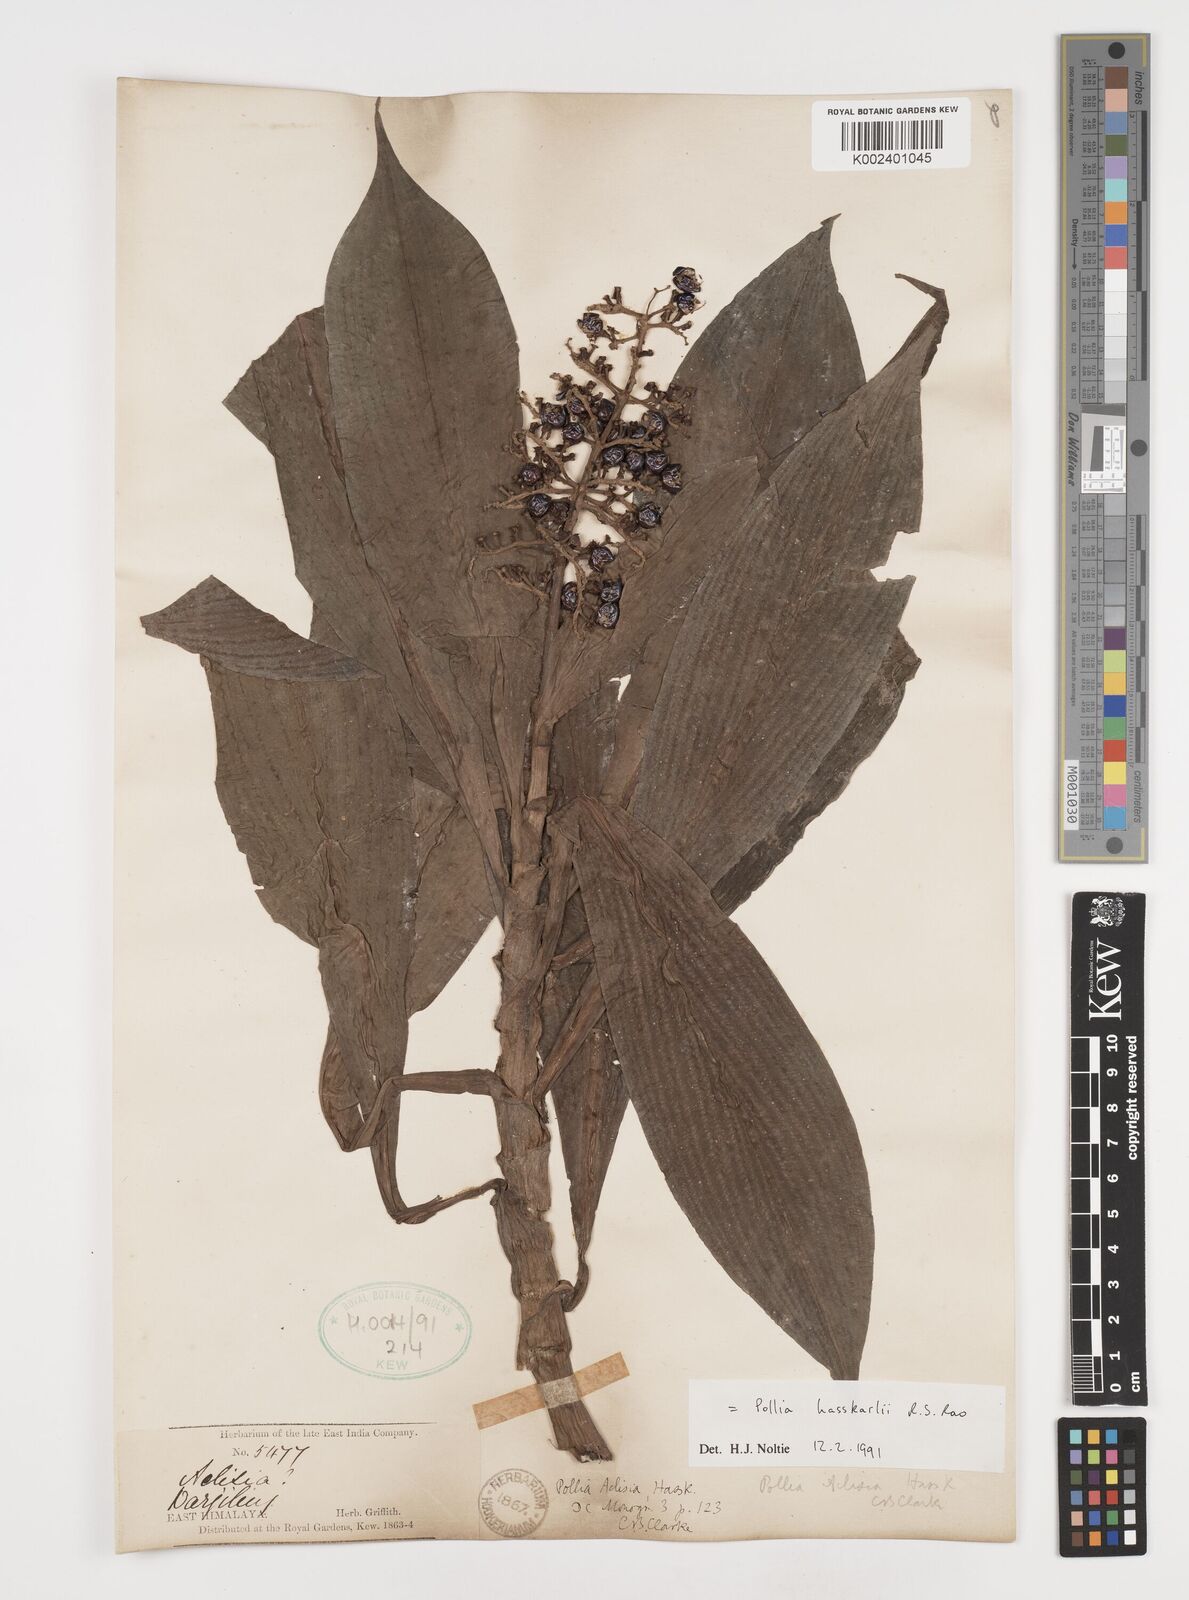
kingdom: Plantae
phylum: Tracheophyta
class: Liliopsida
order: Commelinales
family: Commelinaceae
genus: Pollia
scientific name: Pollia hasskarlii
